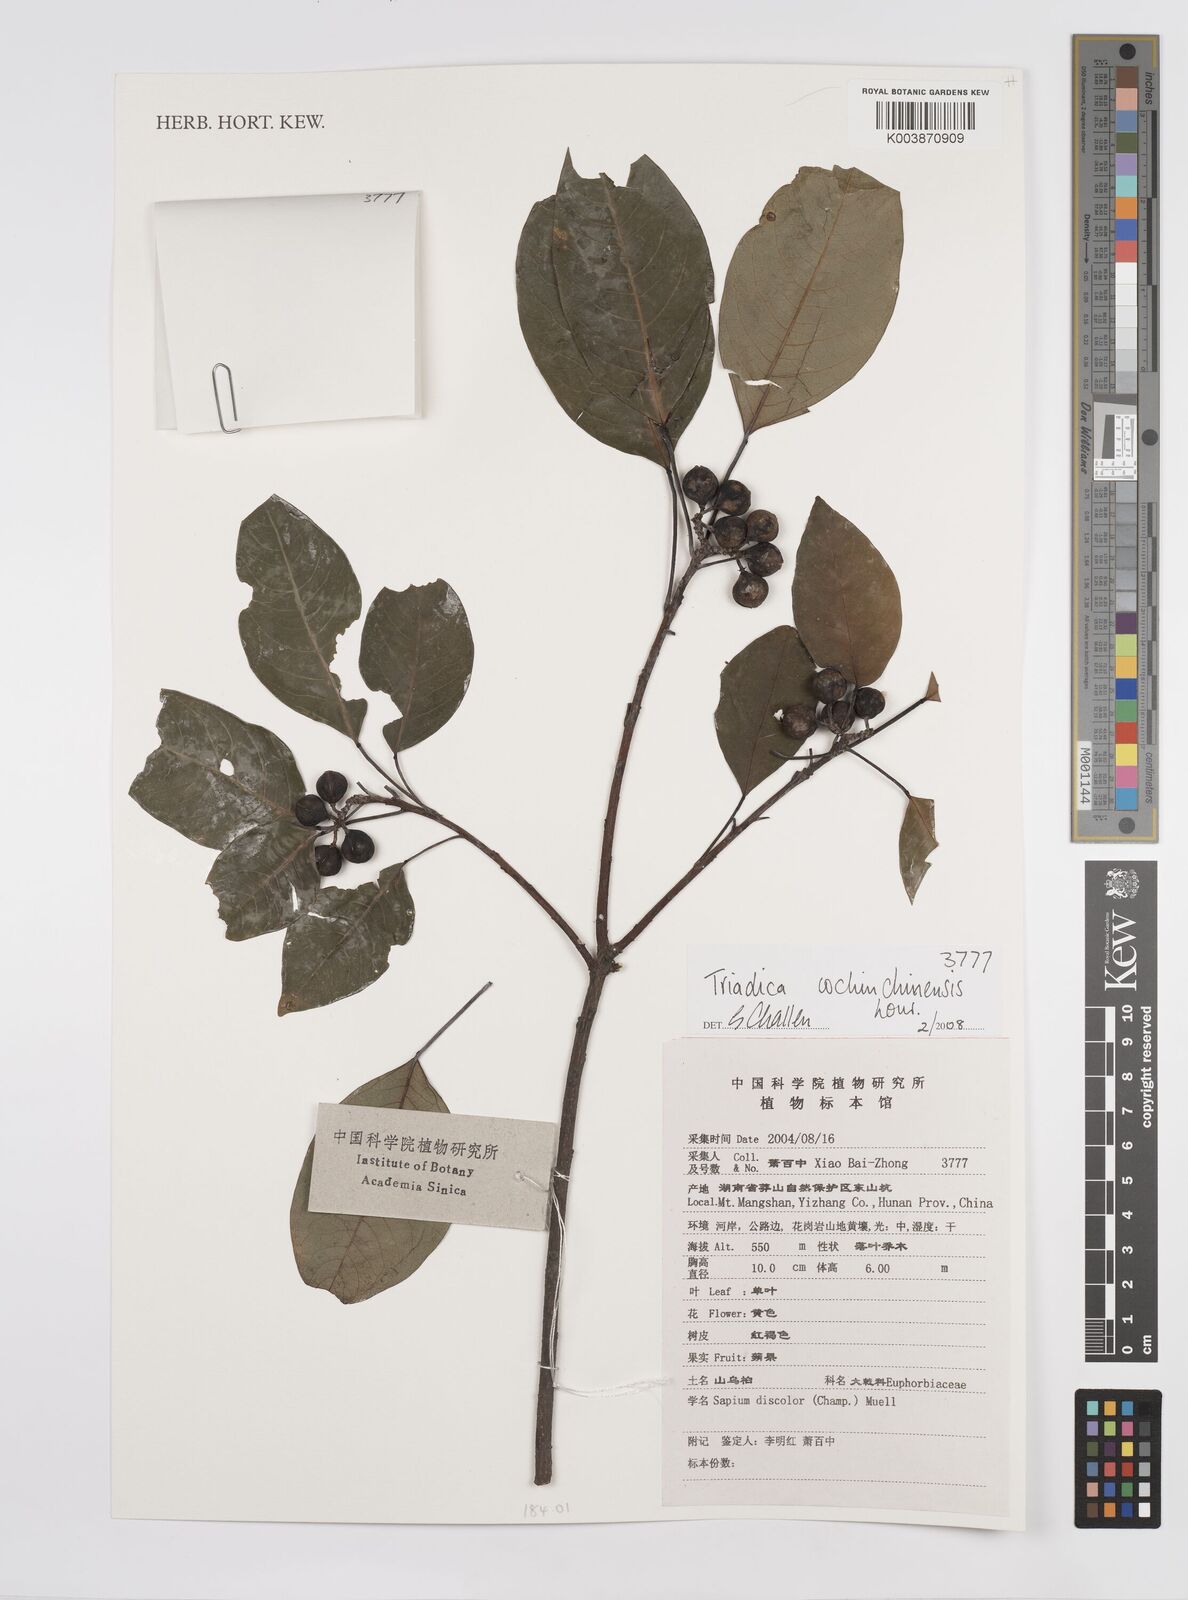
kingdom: Plantae
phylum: Tracheophyta
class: Magnoliopsida
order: Malpighiales
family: Euphorbiaceae
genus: Triadica
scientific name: Triadica cochinchinensis
